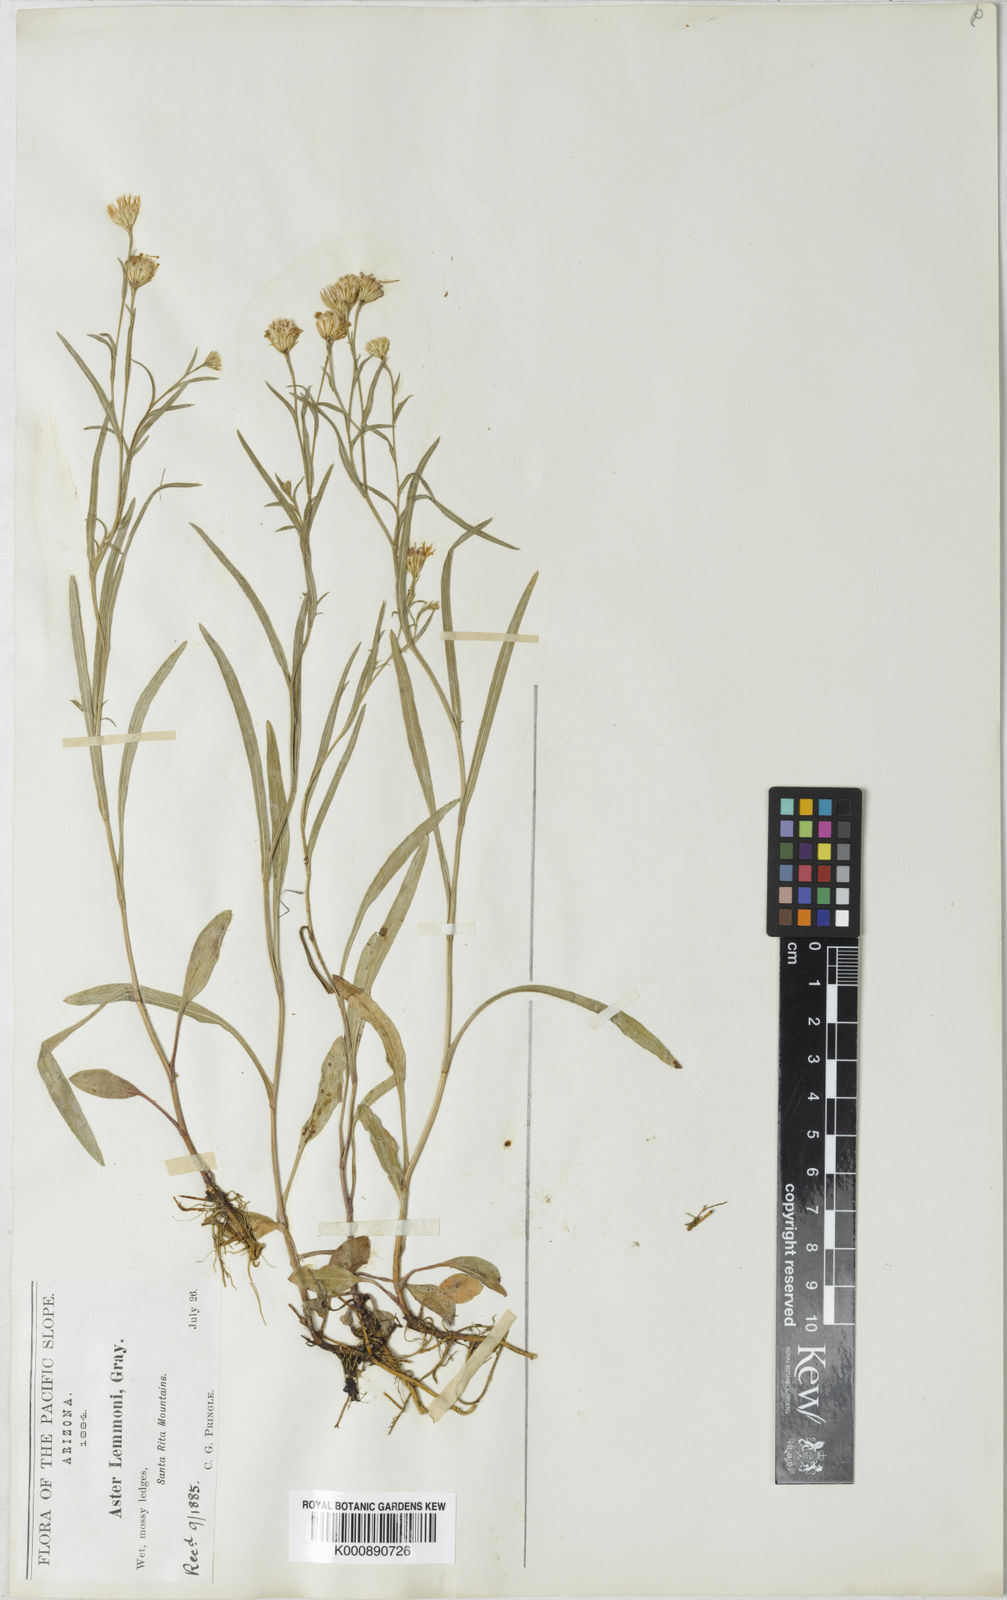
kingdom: Plantae
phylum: Tracheophyta
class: Magnoliopsida
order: Asterales
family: Asteraceae
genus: Symphyotrichum
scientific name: Symphyotrichum potosinum
